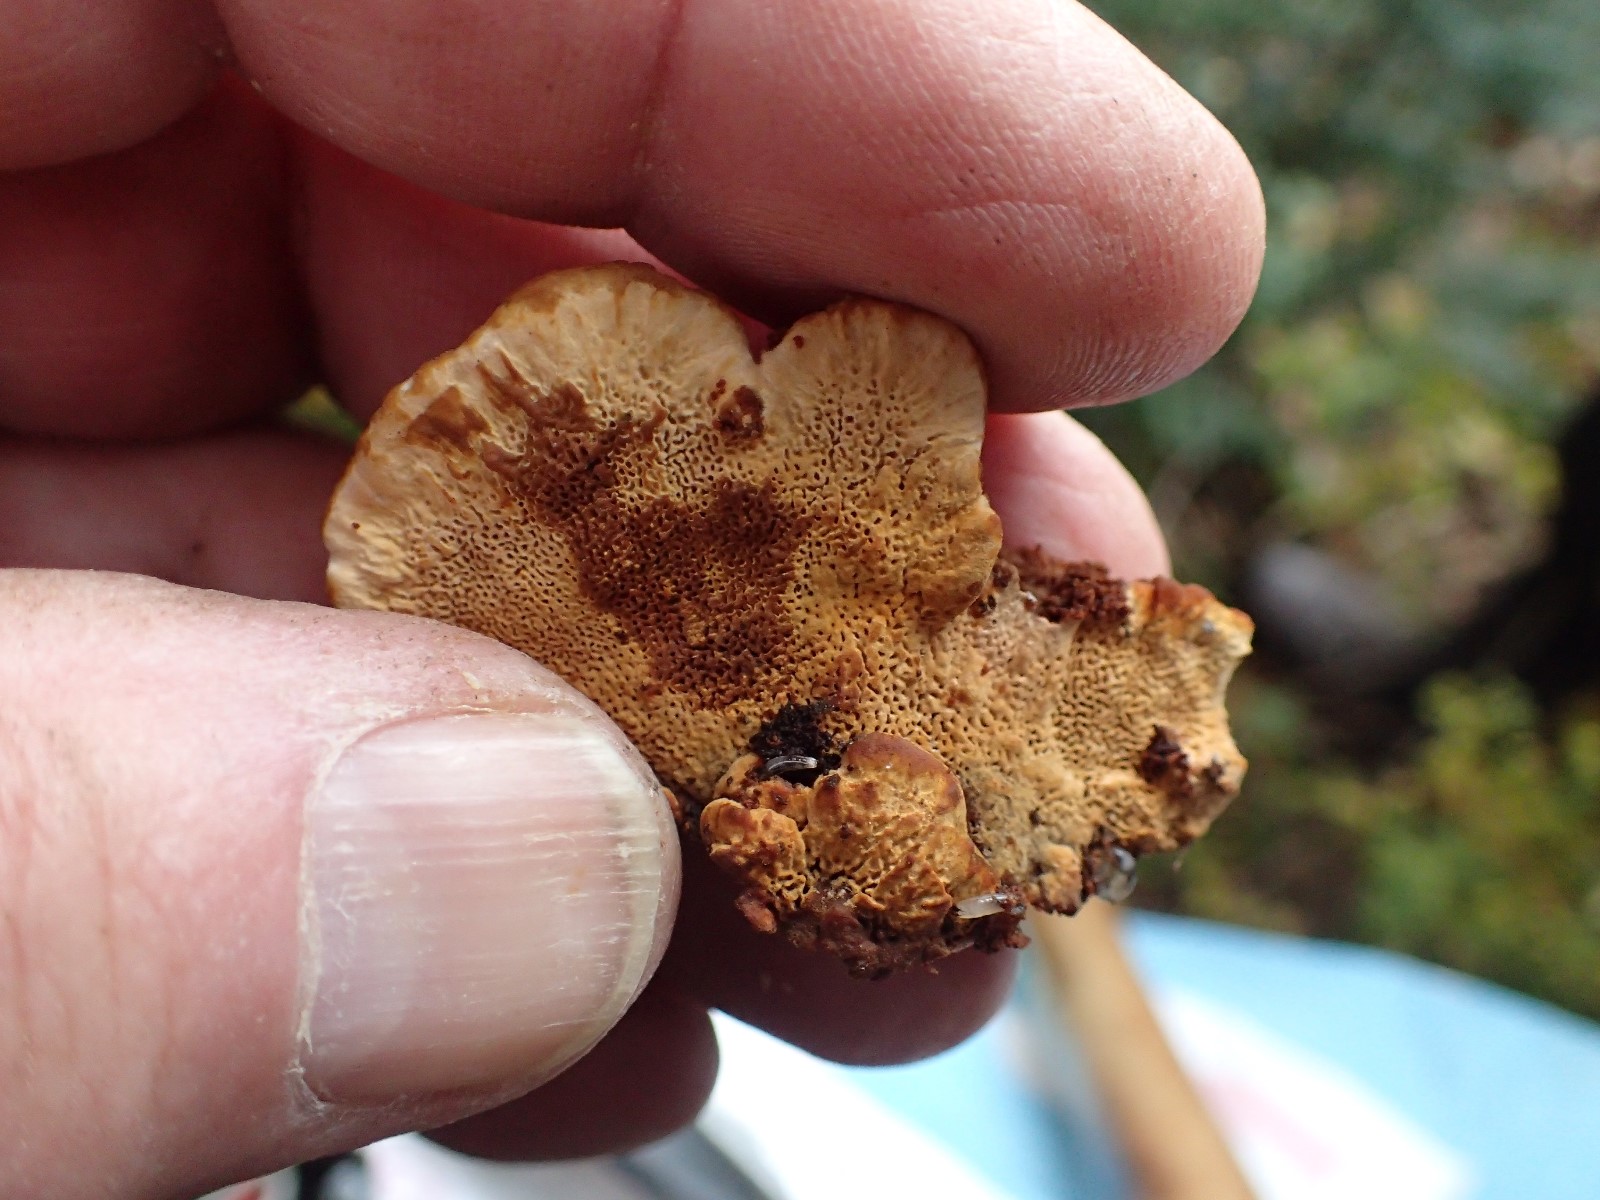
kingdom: Fungi
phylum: Basidiomycota
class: Agaricomycetes
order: Gloeophyllales
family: Gloeophyllaceae
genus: Gloeophyllum
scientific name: Gloeophyllum odoratum
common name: duftende korkhat
